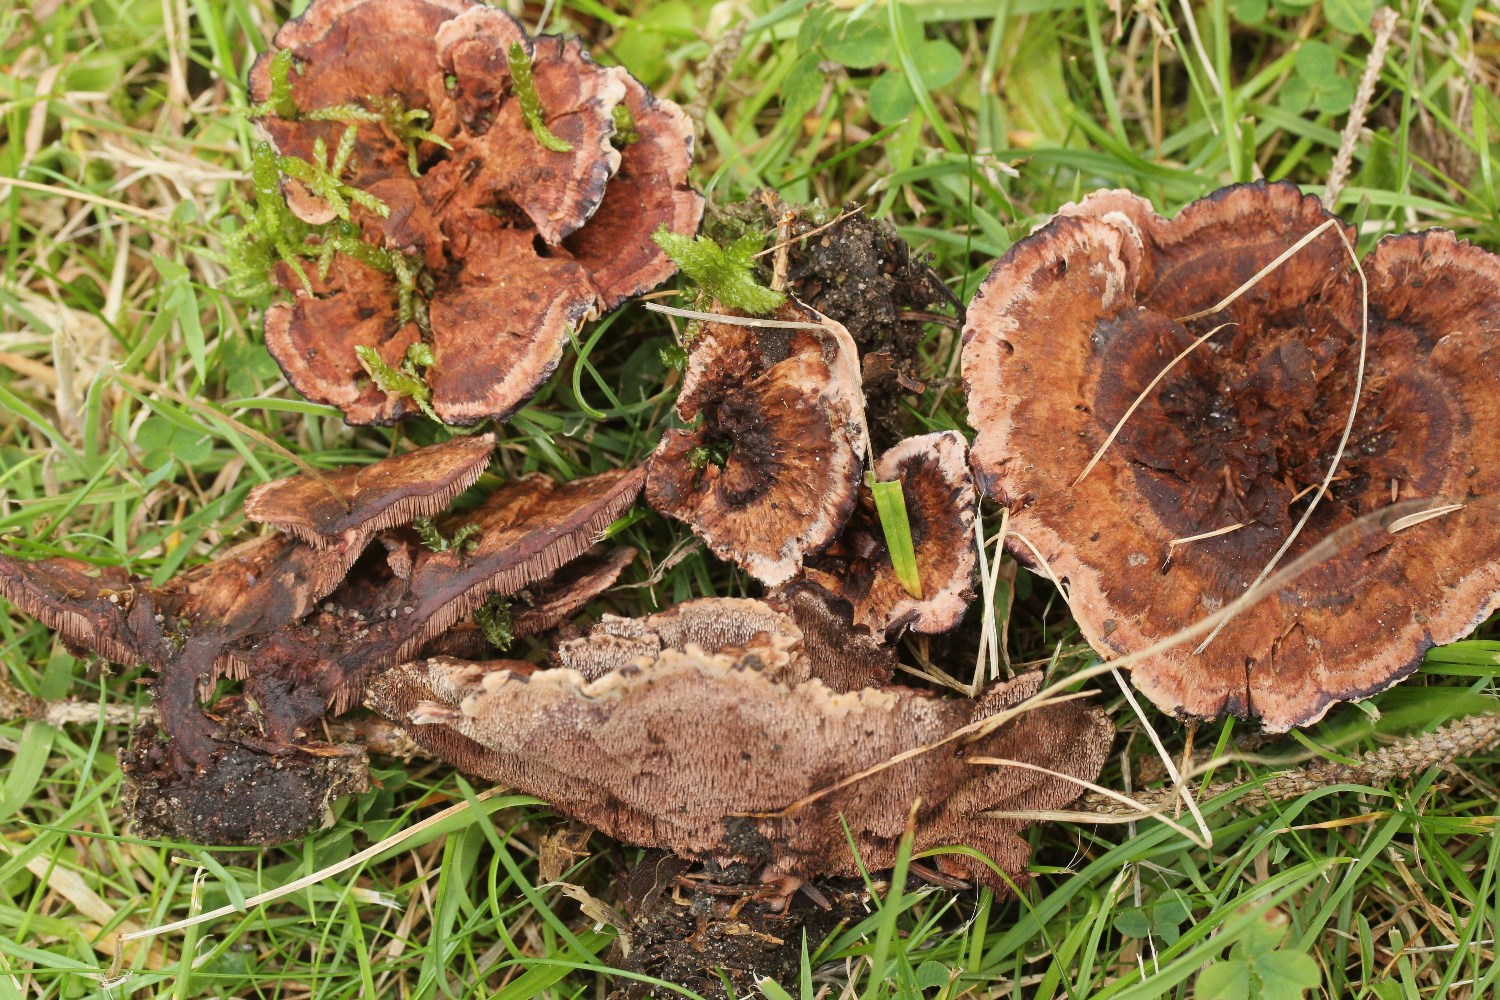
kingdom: Fungi
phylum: Basidiomycota
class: Agaricomycetes
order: Thelephorales
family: Bankeraceae
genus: Hydnellum
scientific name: Hydnellum concrescens
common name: bæltet korkpigsvamp
